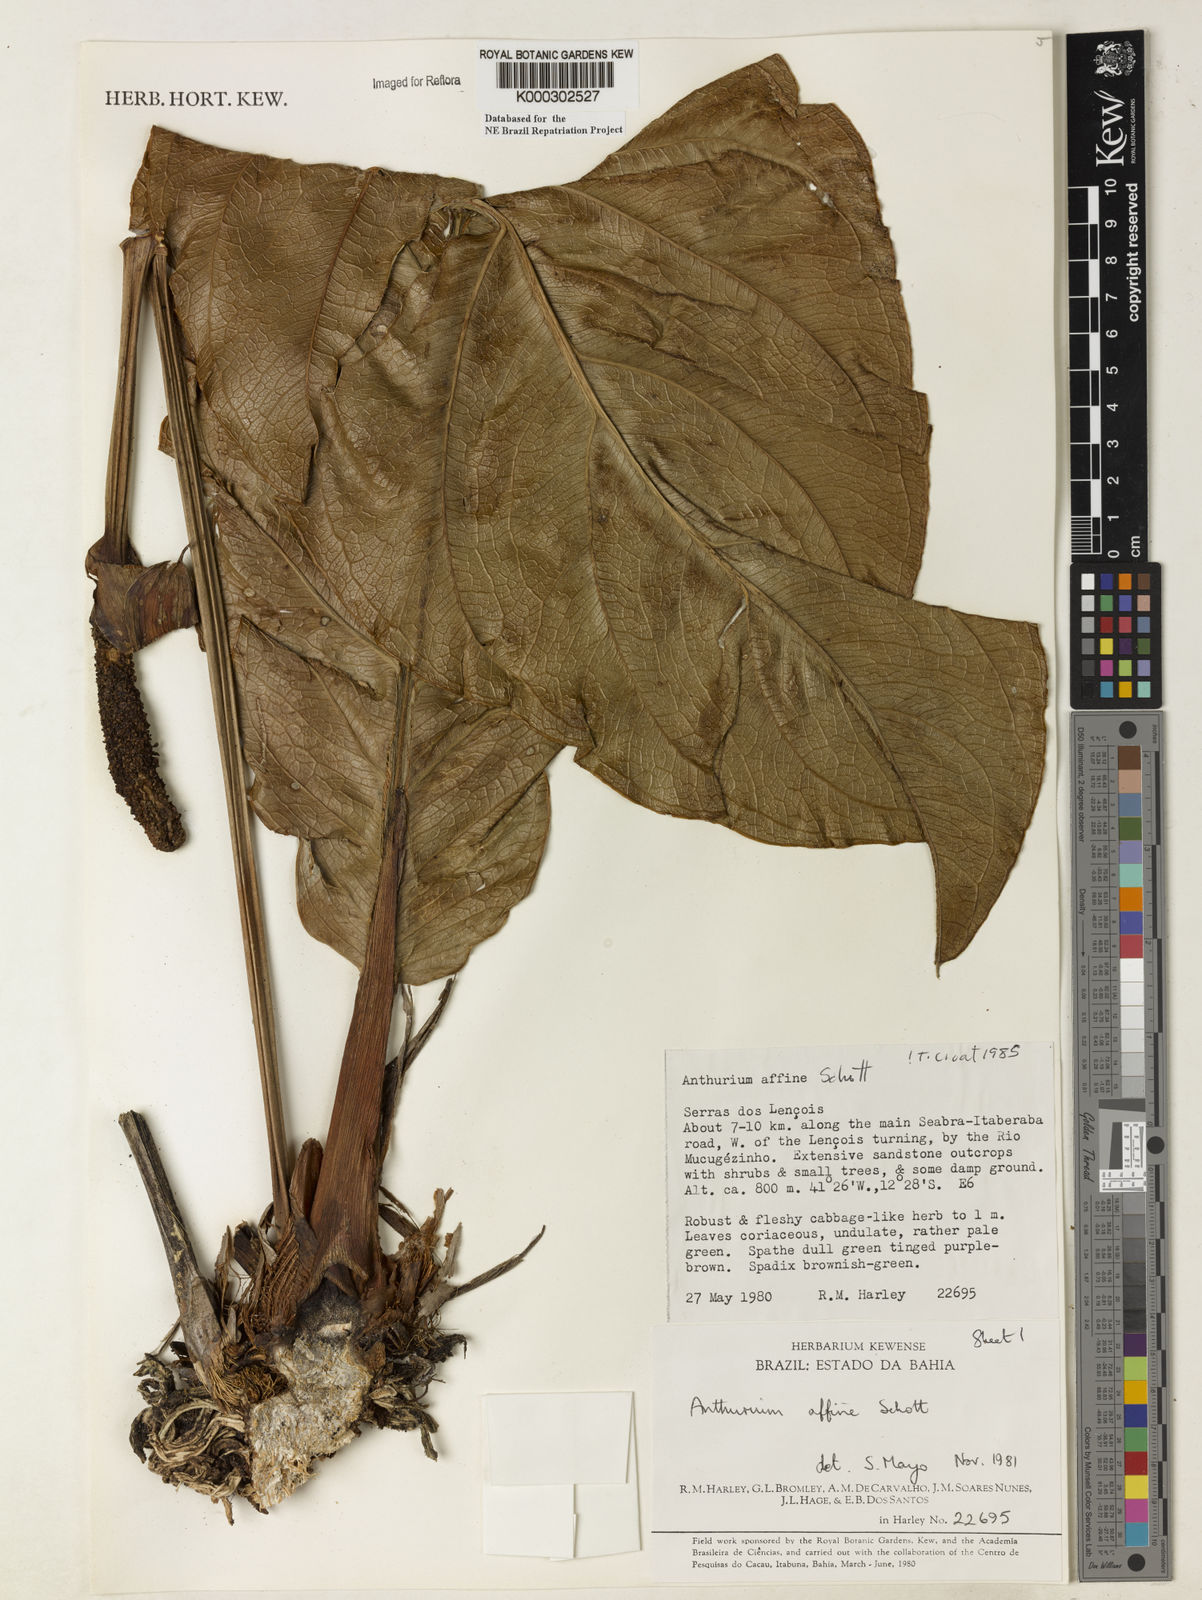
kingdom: Plantae
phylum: Tracheophyta
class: Liliopsida
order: Alismatales
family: Araceae
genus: Anthurium
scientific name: Anthurium affine
